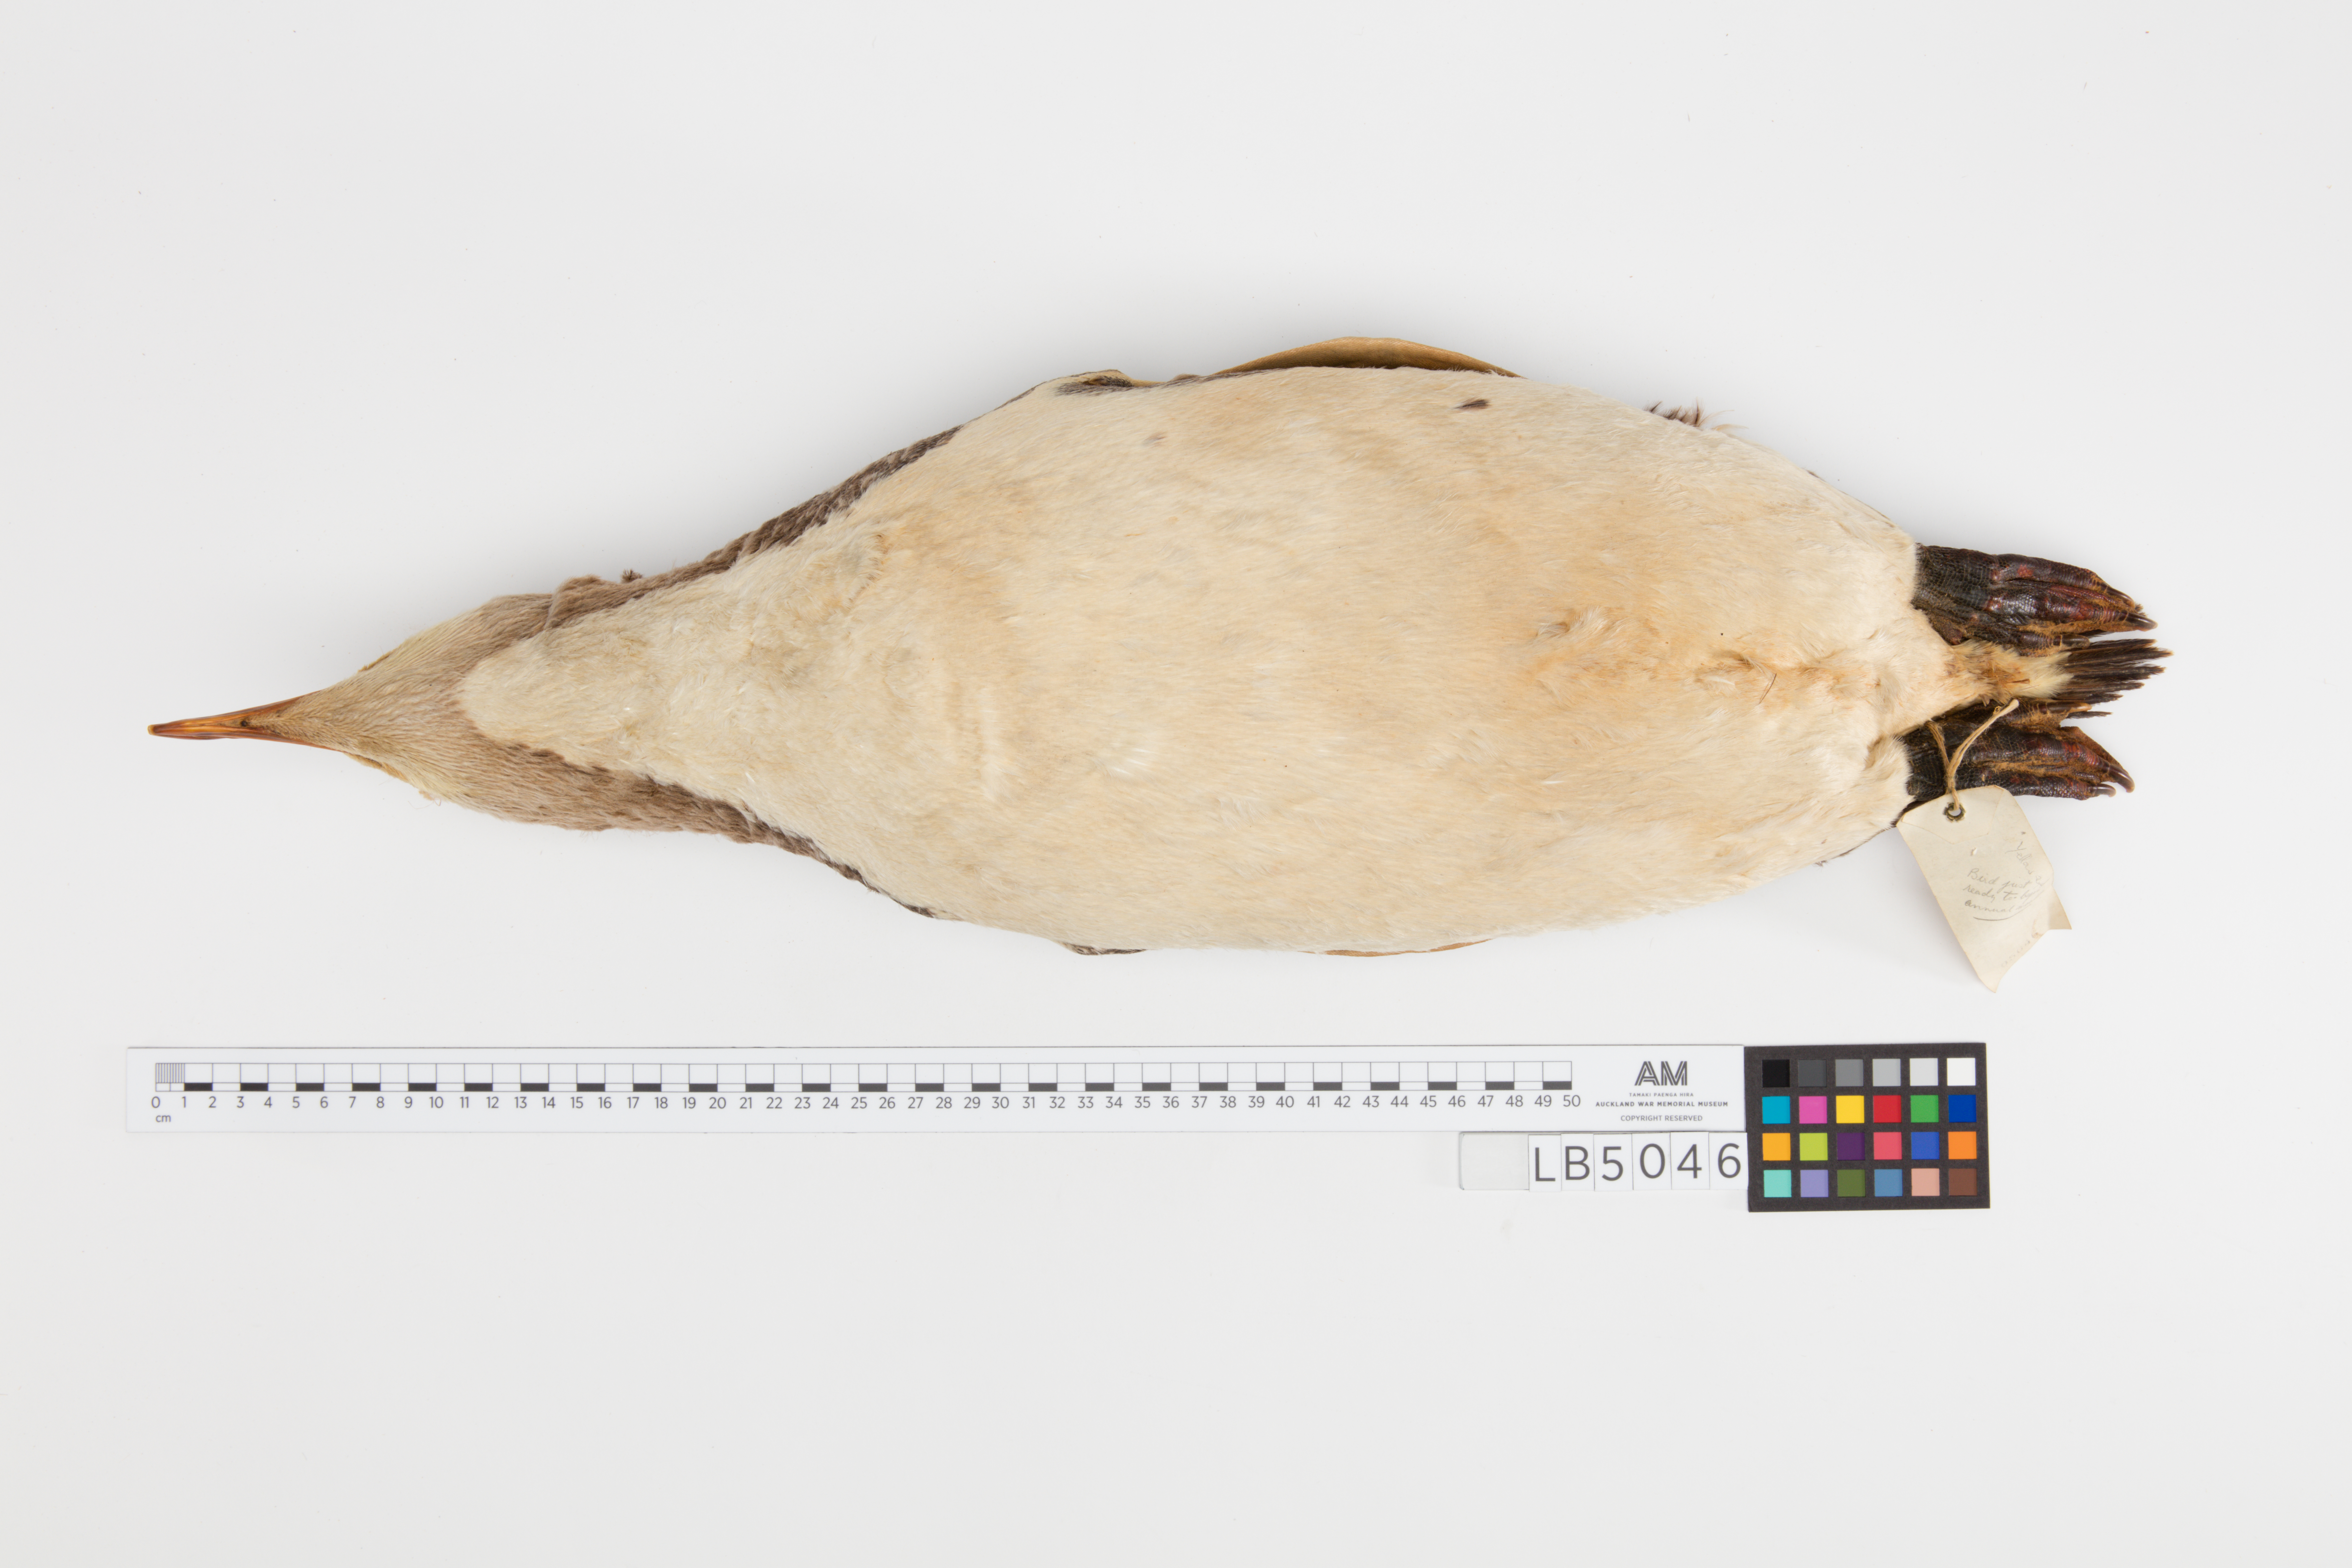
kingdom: Animalia
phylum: Chordata
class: Aves
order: Sphenisciformes
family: Spheniscidae
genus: Megadyptes
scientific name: Megadyptes antipodes
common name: Yellow-eyed penguin
